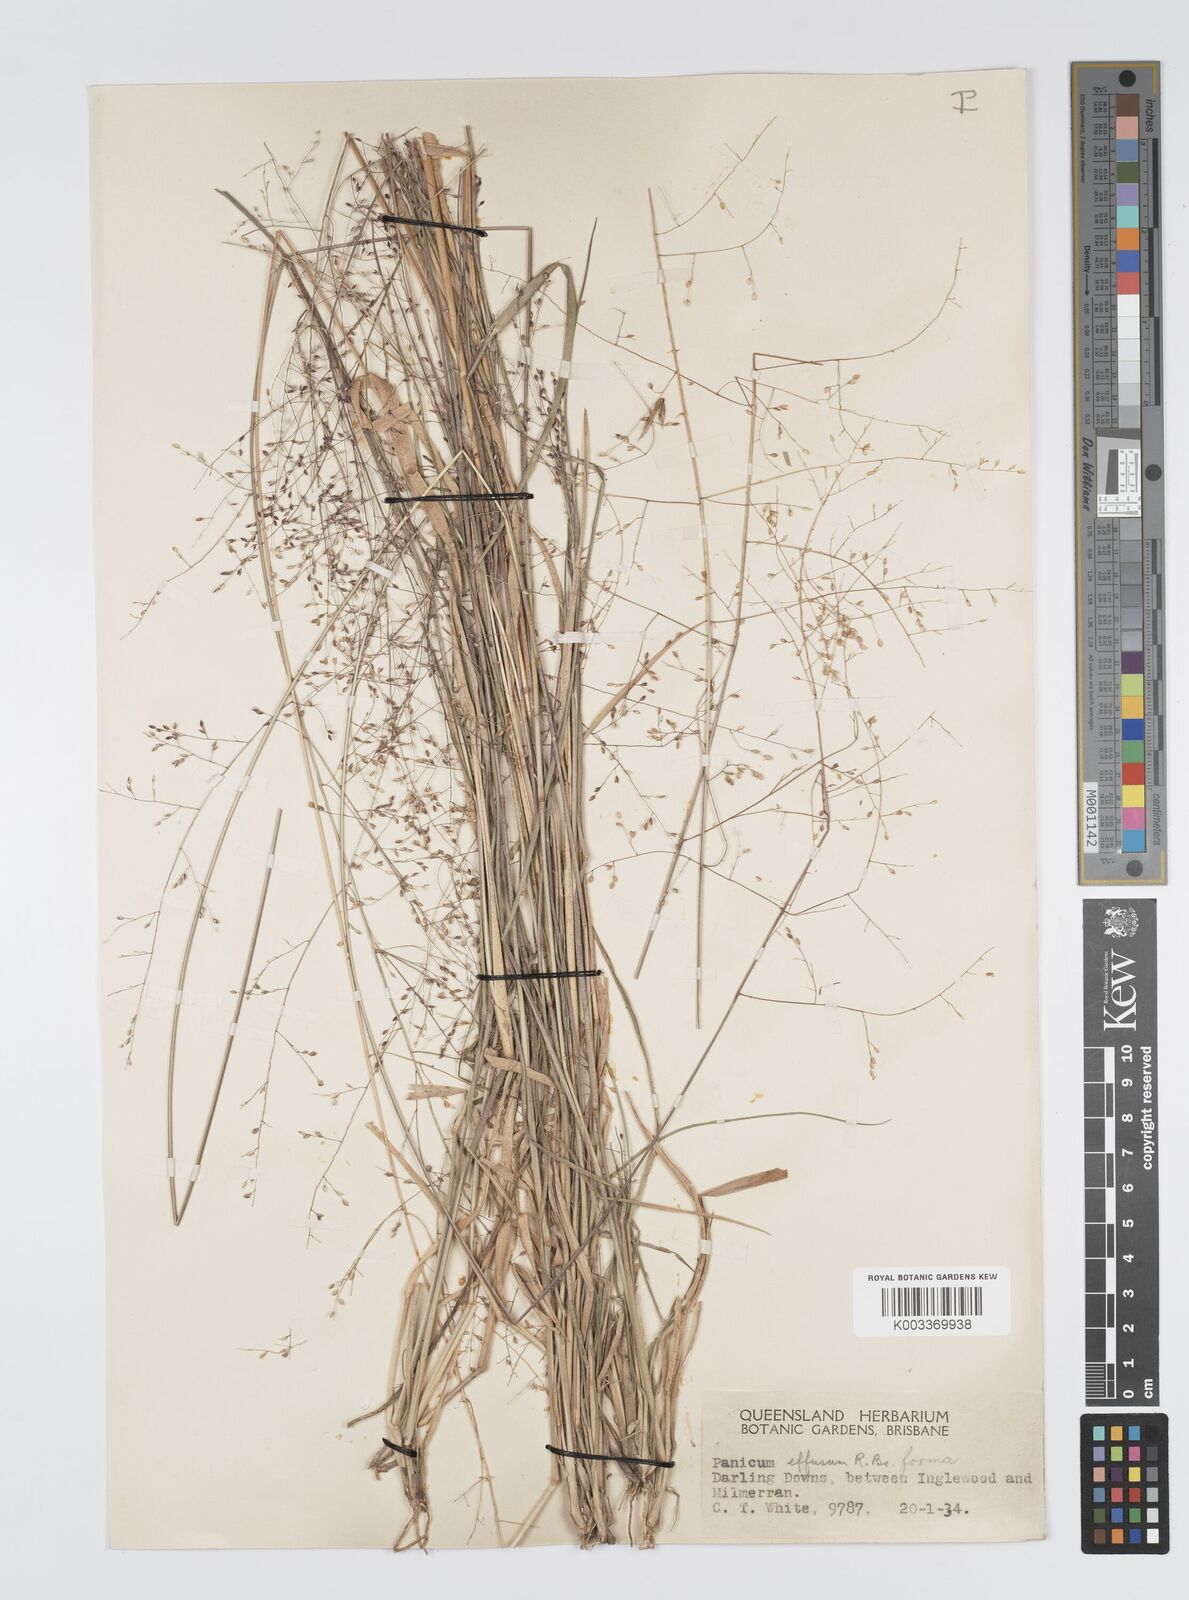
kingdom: Plantae
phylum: Tracheophyta
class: Liliopsida
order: Poales
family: Poaceae
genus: Panicum
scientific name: Panicum effusum
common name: Hairy panic grass
